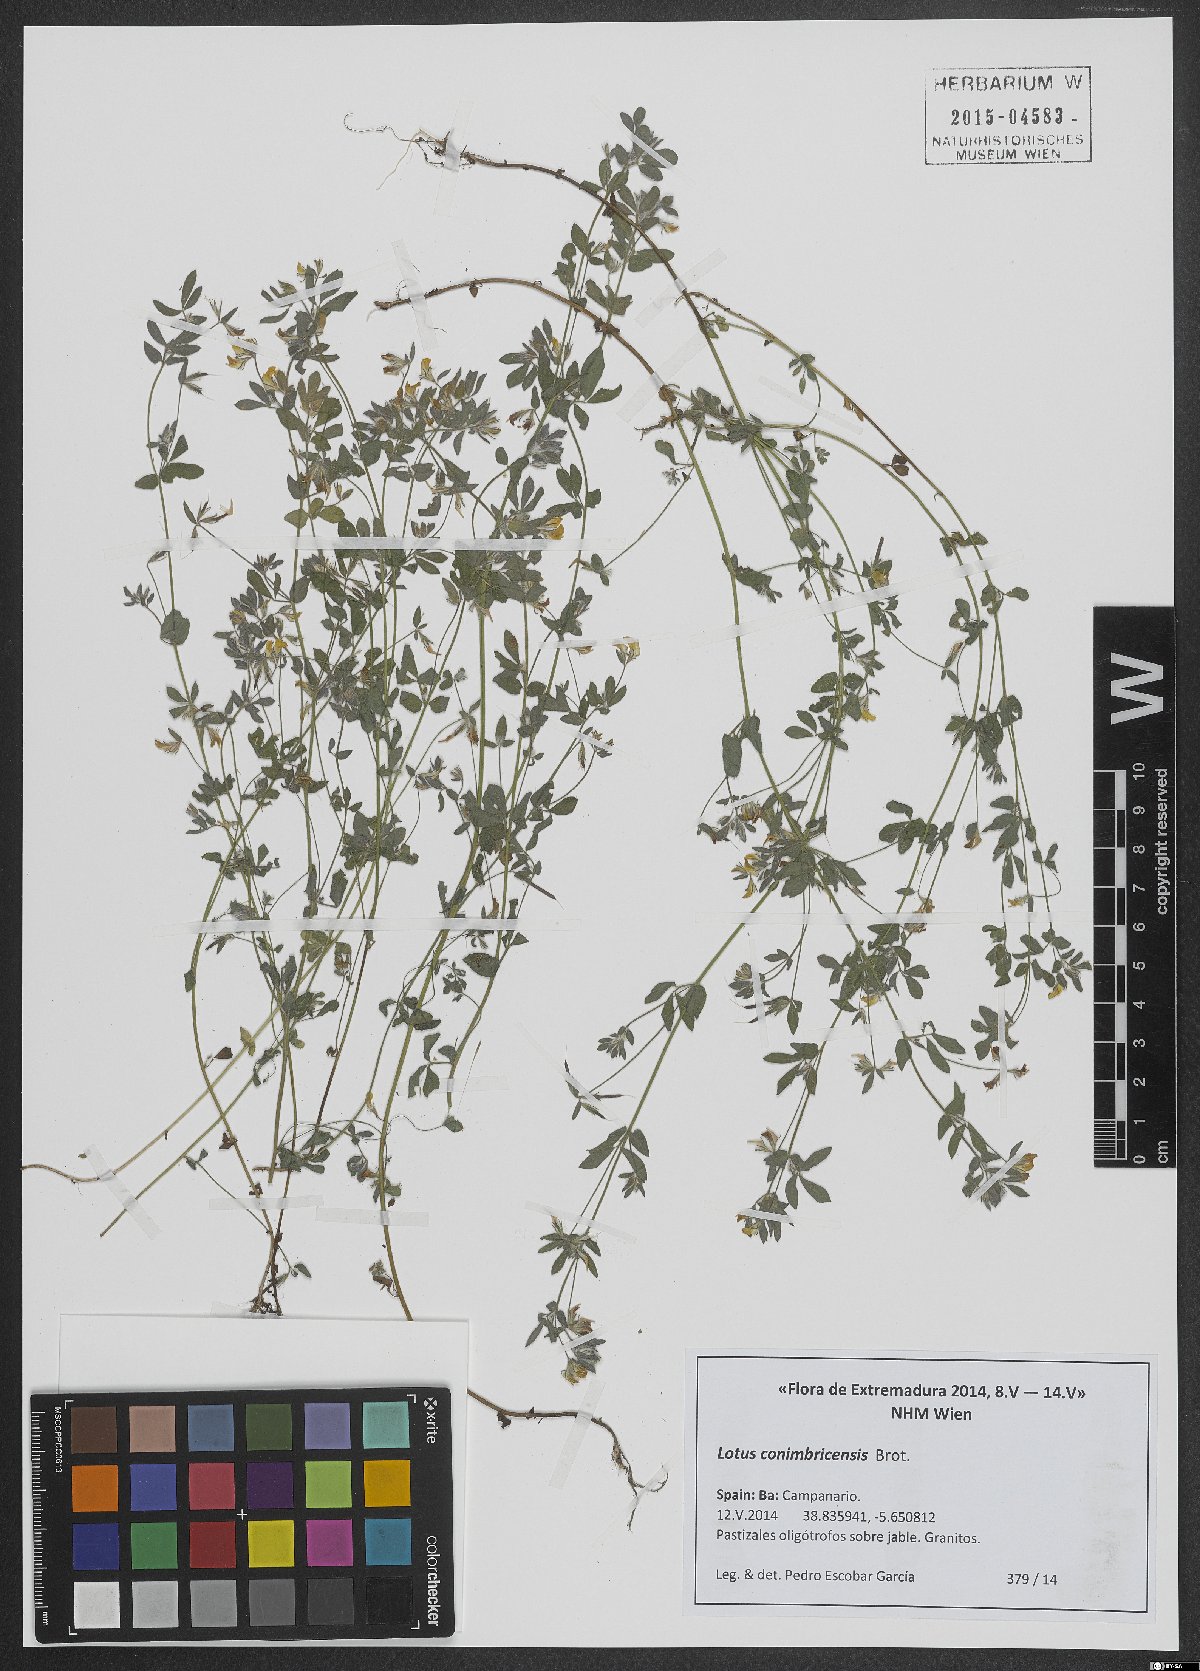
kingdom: Plantae
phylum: Tracheophyta
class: Magnoliopsida
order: Fabales
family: Fabaceae
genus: Lotus
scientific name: Lotus conimbricensis
